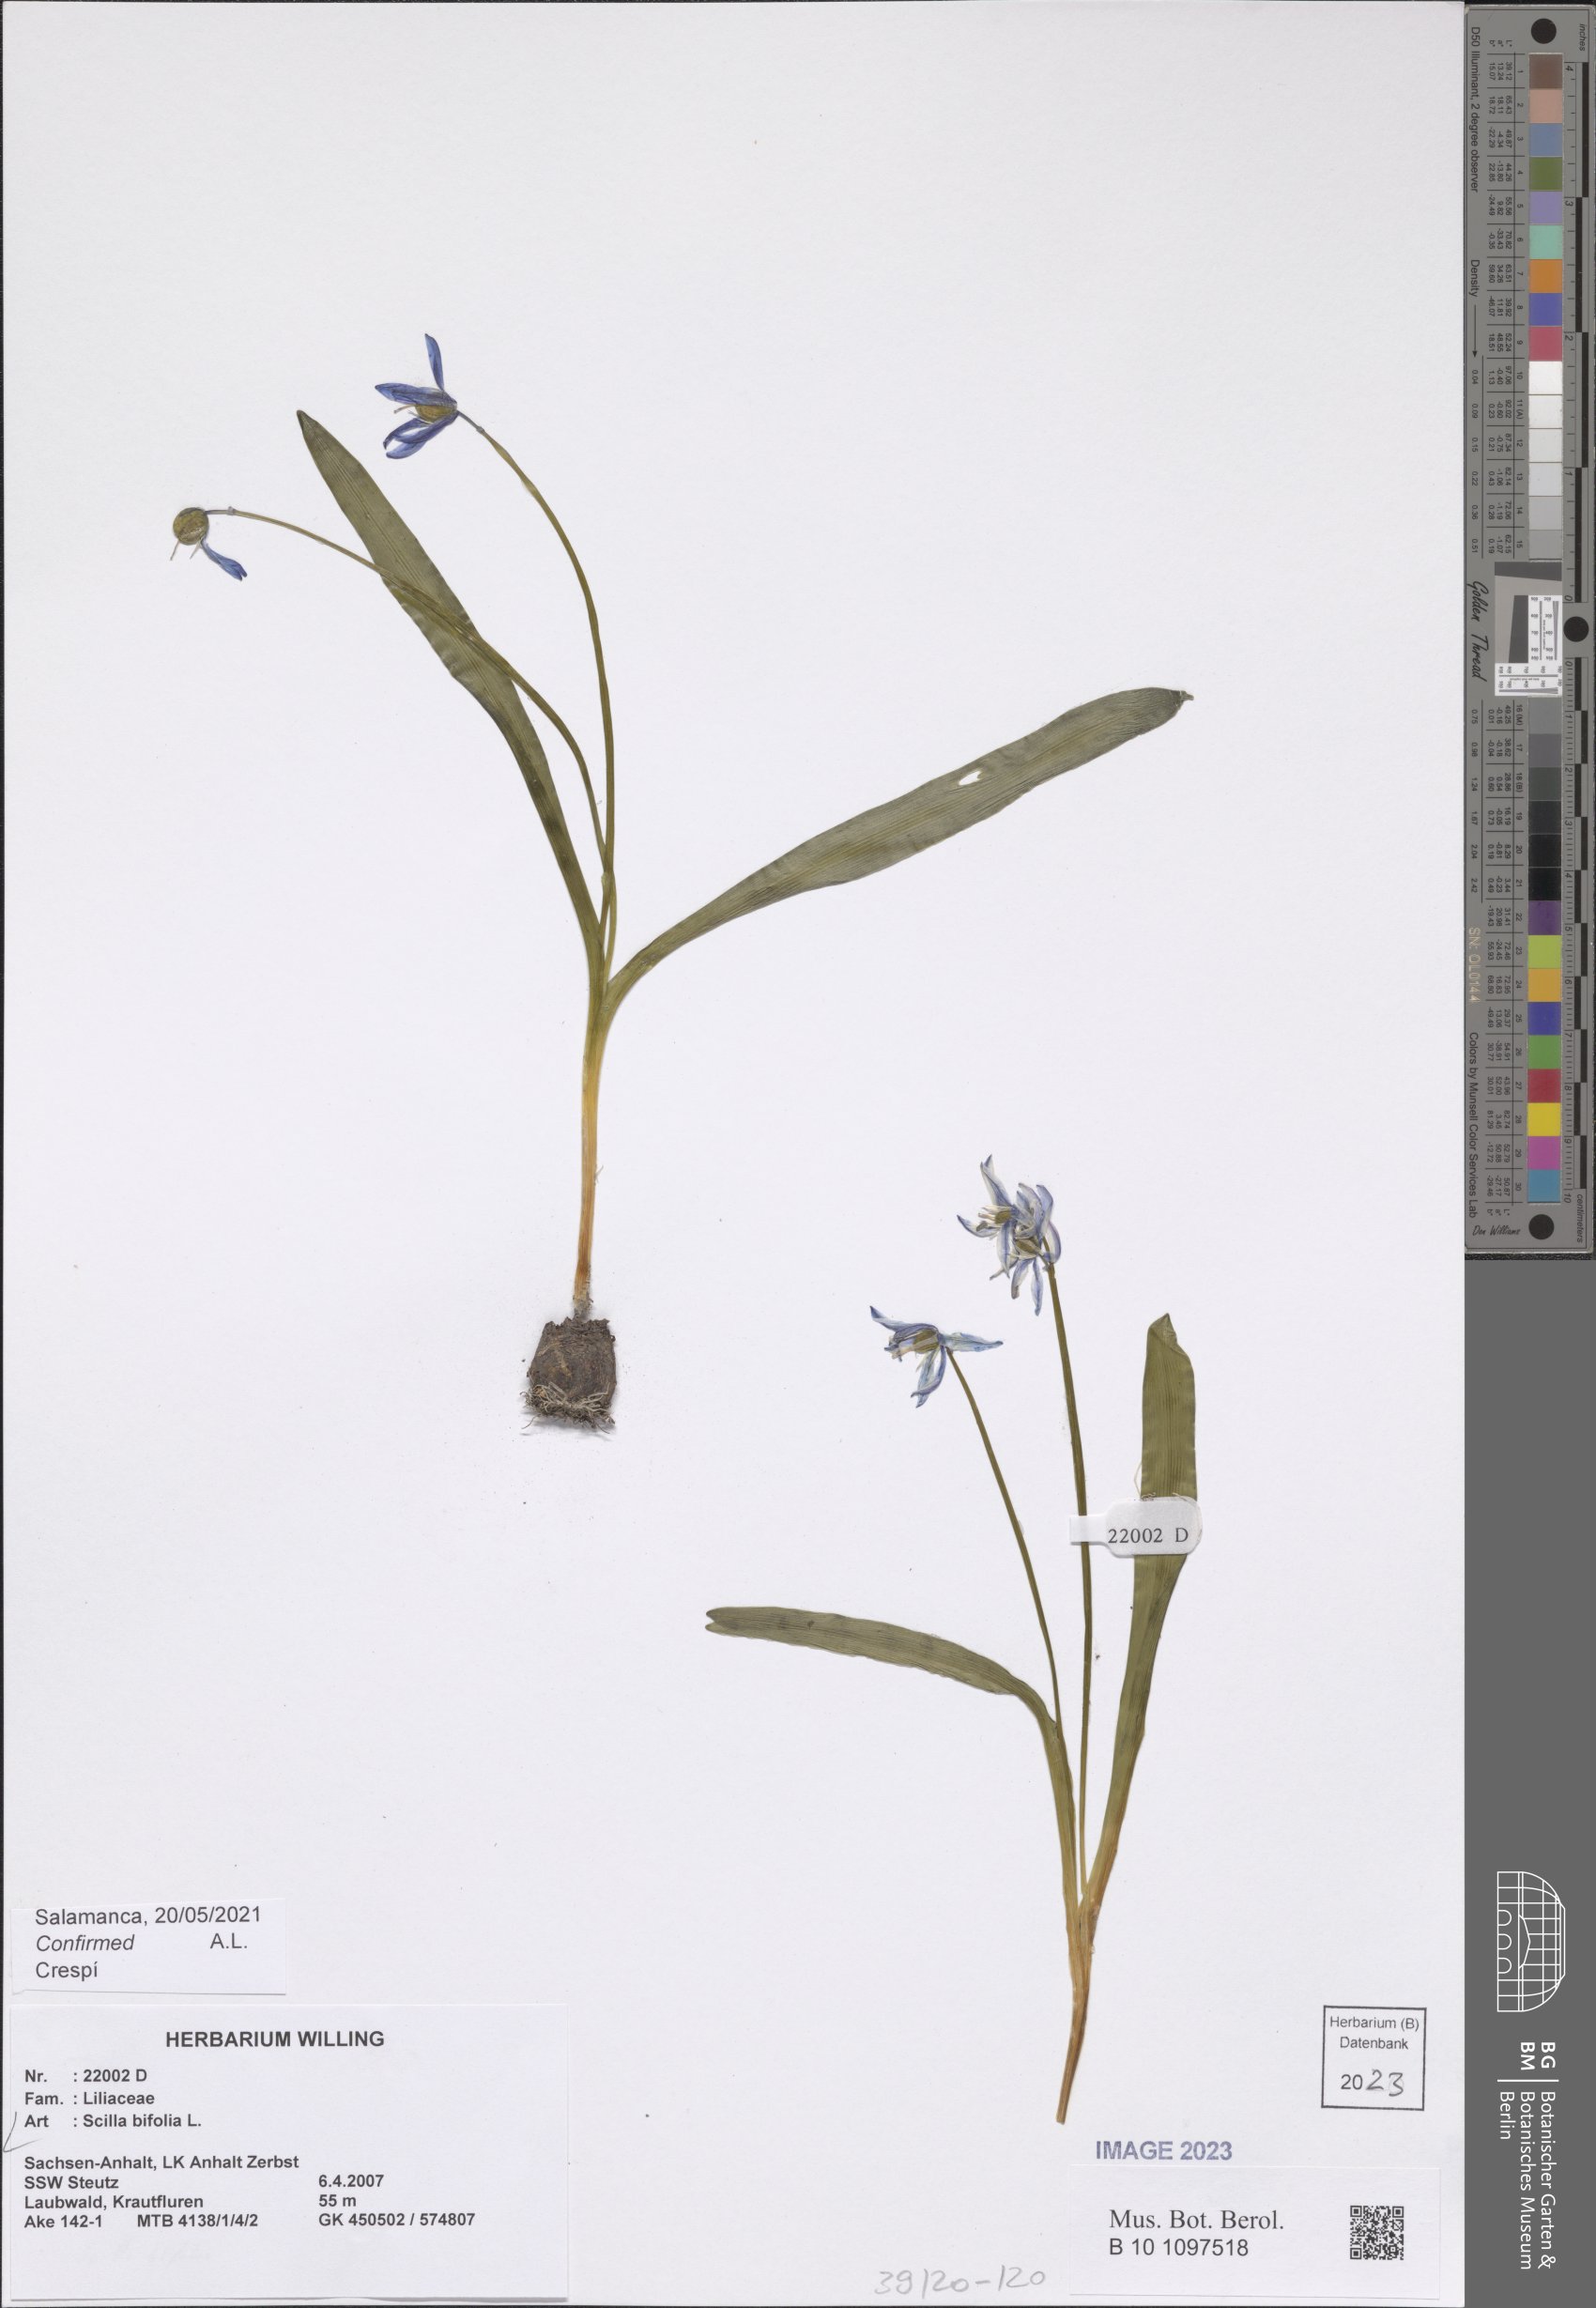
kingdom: Plantae
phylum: Tracheophyta
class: Liliopsida
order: Asparagales
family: Asparagaceae
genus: Scilla
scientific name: Scilla bifolia
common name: Alpine squill
